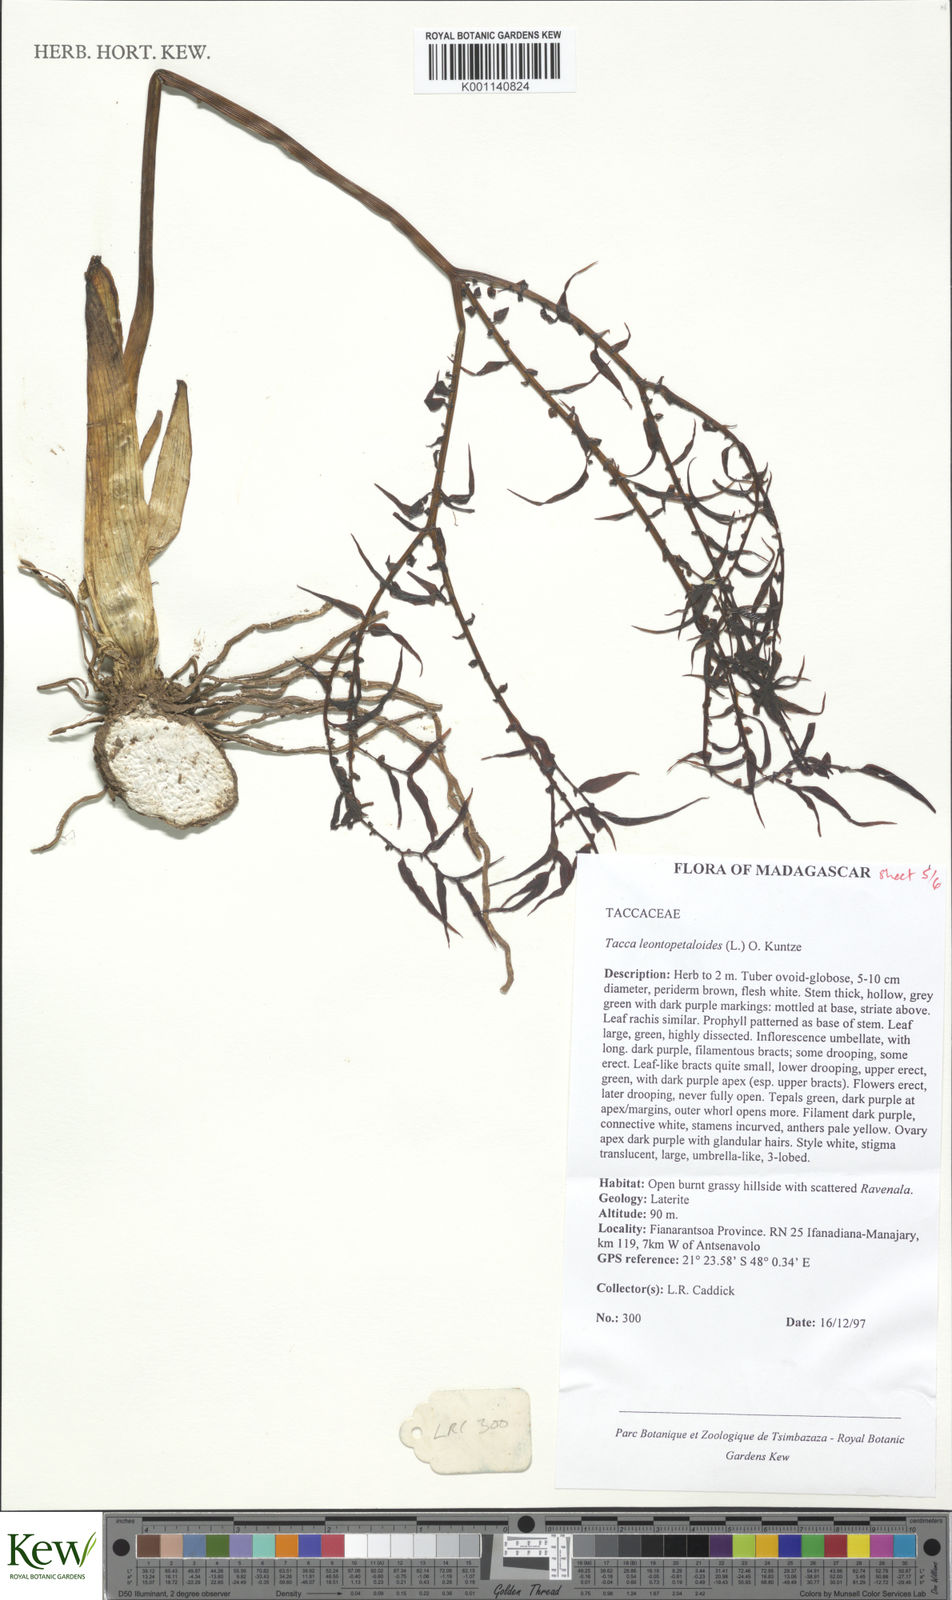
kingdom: Plantae
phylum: Tracheophyta
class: Liliopsida
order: Dioscoreales
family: Dioscoreaceae
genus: Tacca
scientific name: Tacca leontopetaloides
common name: Arrowroot
